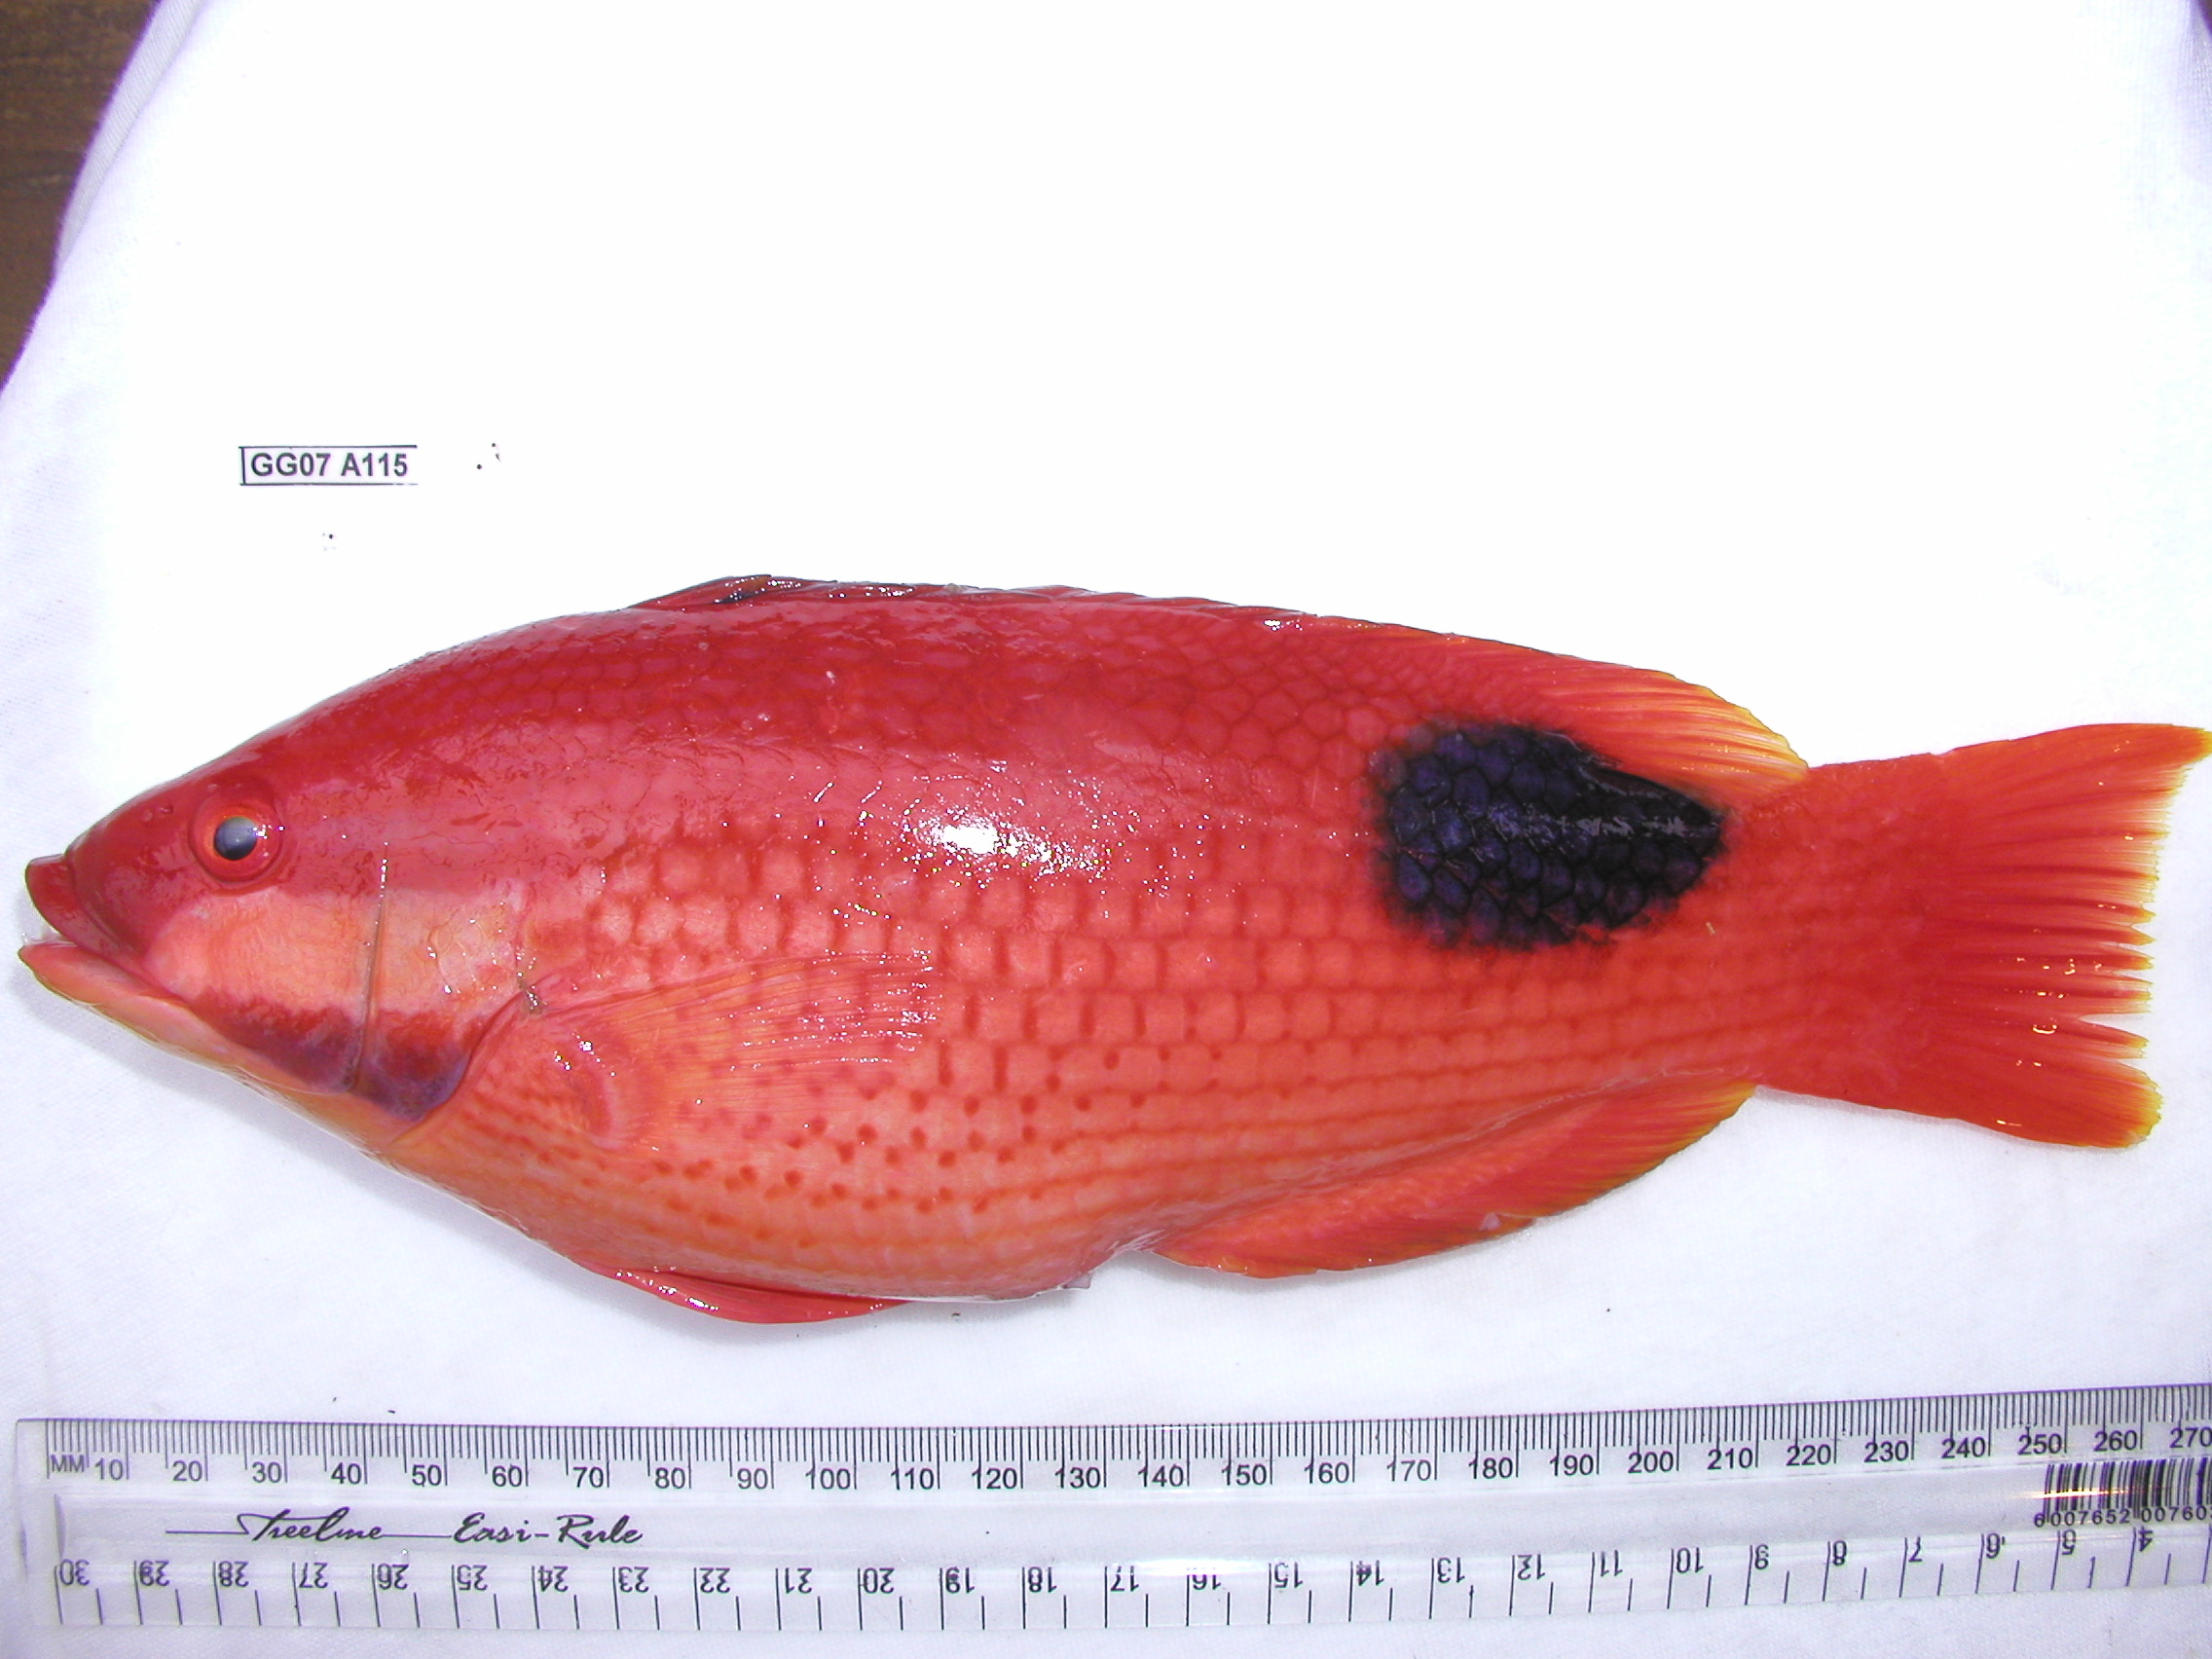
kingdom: Animalia
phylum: Chordata
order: Perciformes
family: Labridae
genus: Bodianus
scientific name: Bodianus bilunulatus
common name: Tarry hogfish
